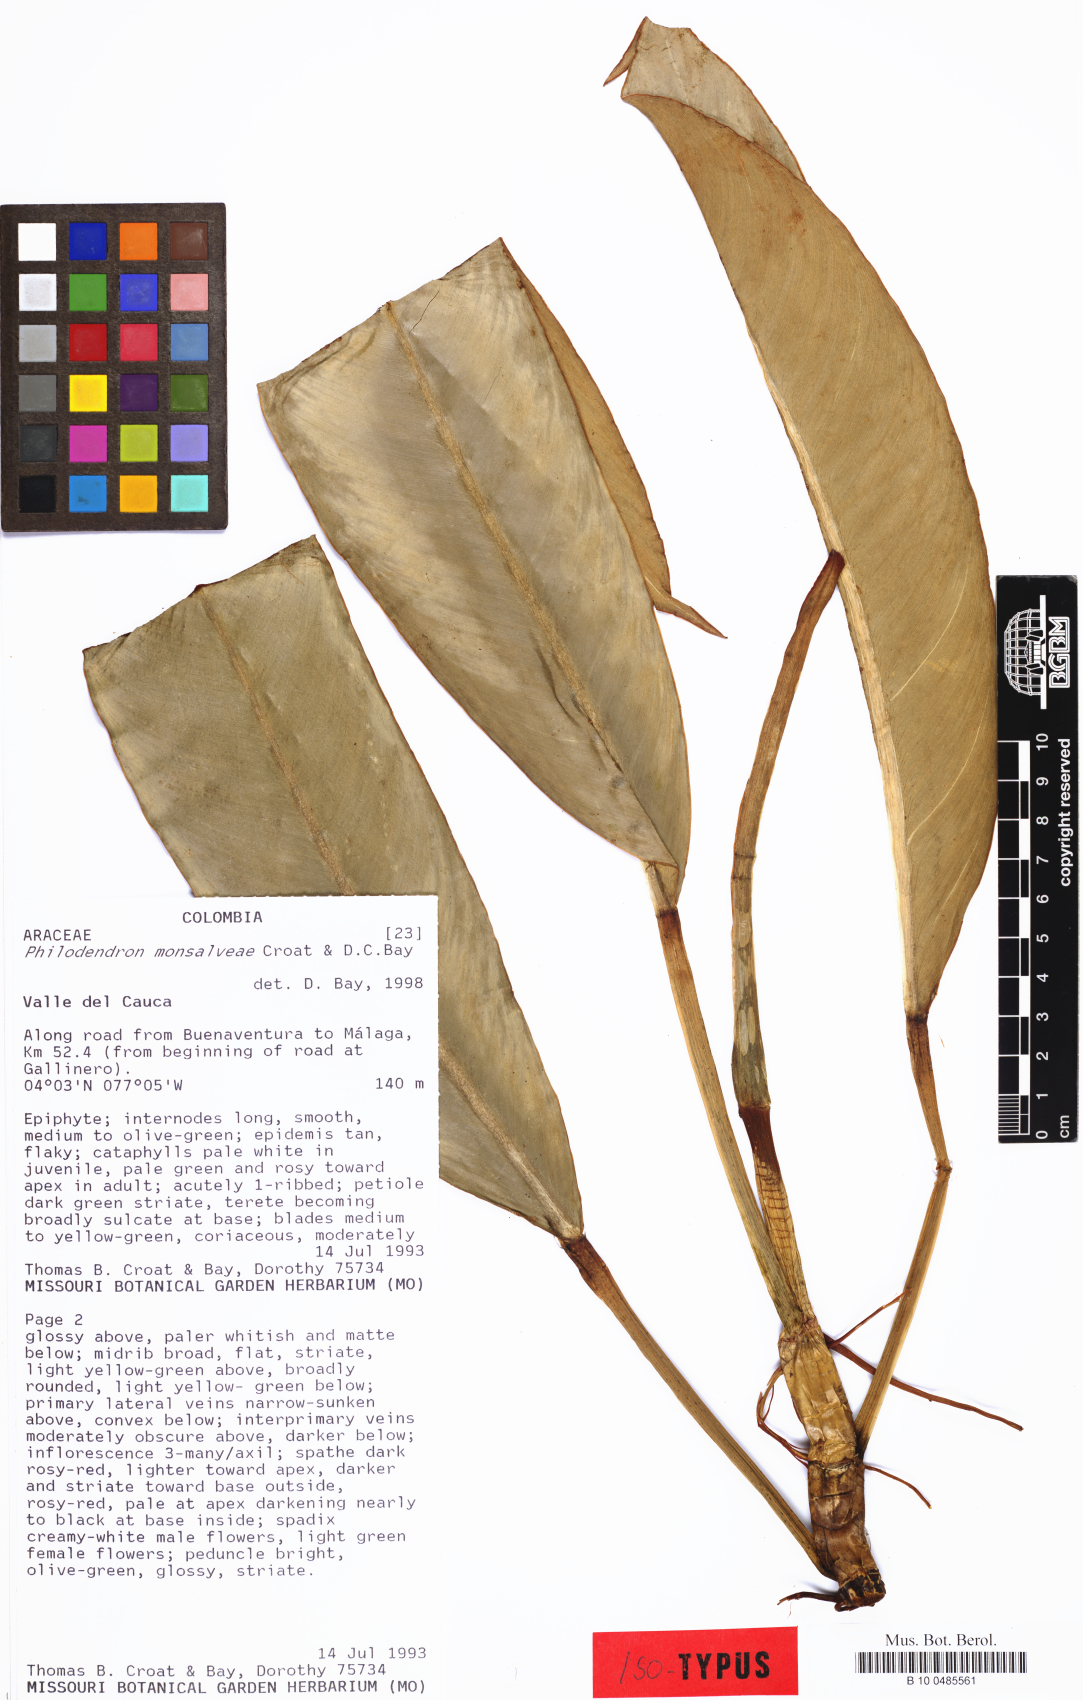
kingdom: Plantae
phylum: Tracheophyta
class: Liliopsida
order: Alismatales
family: Araceae
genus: Philodendron
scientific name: Philodendron monsalveae
